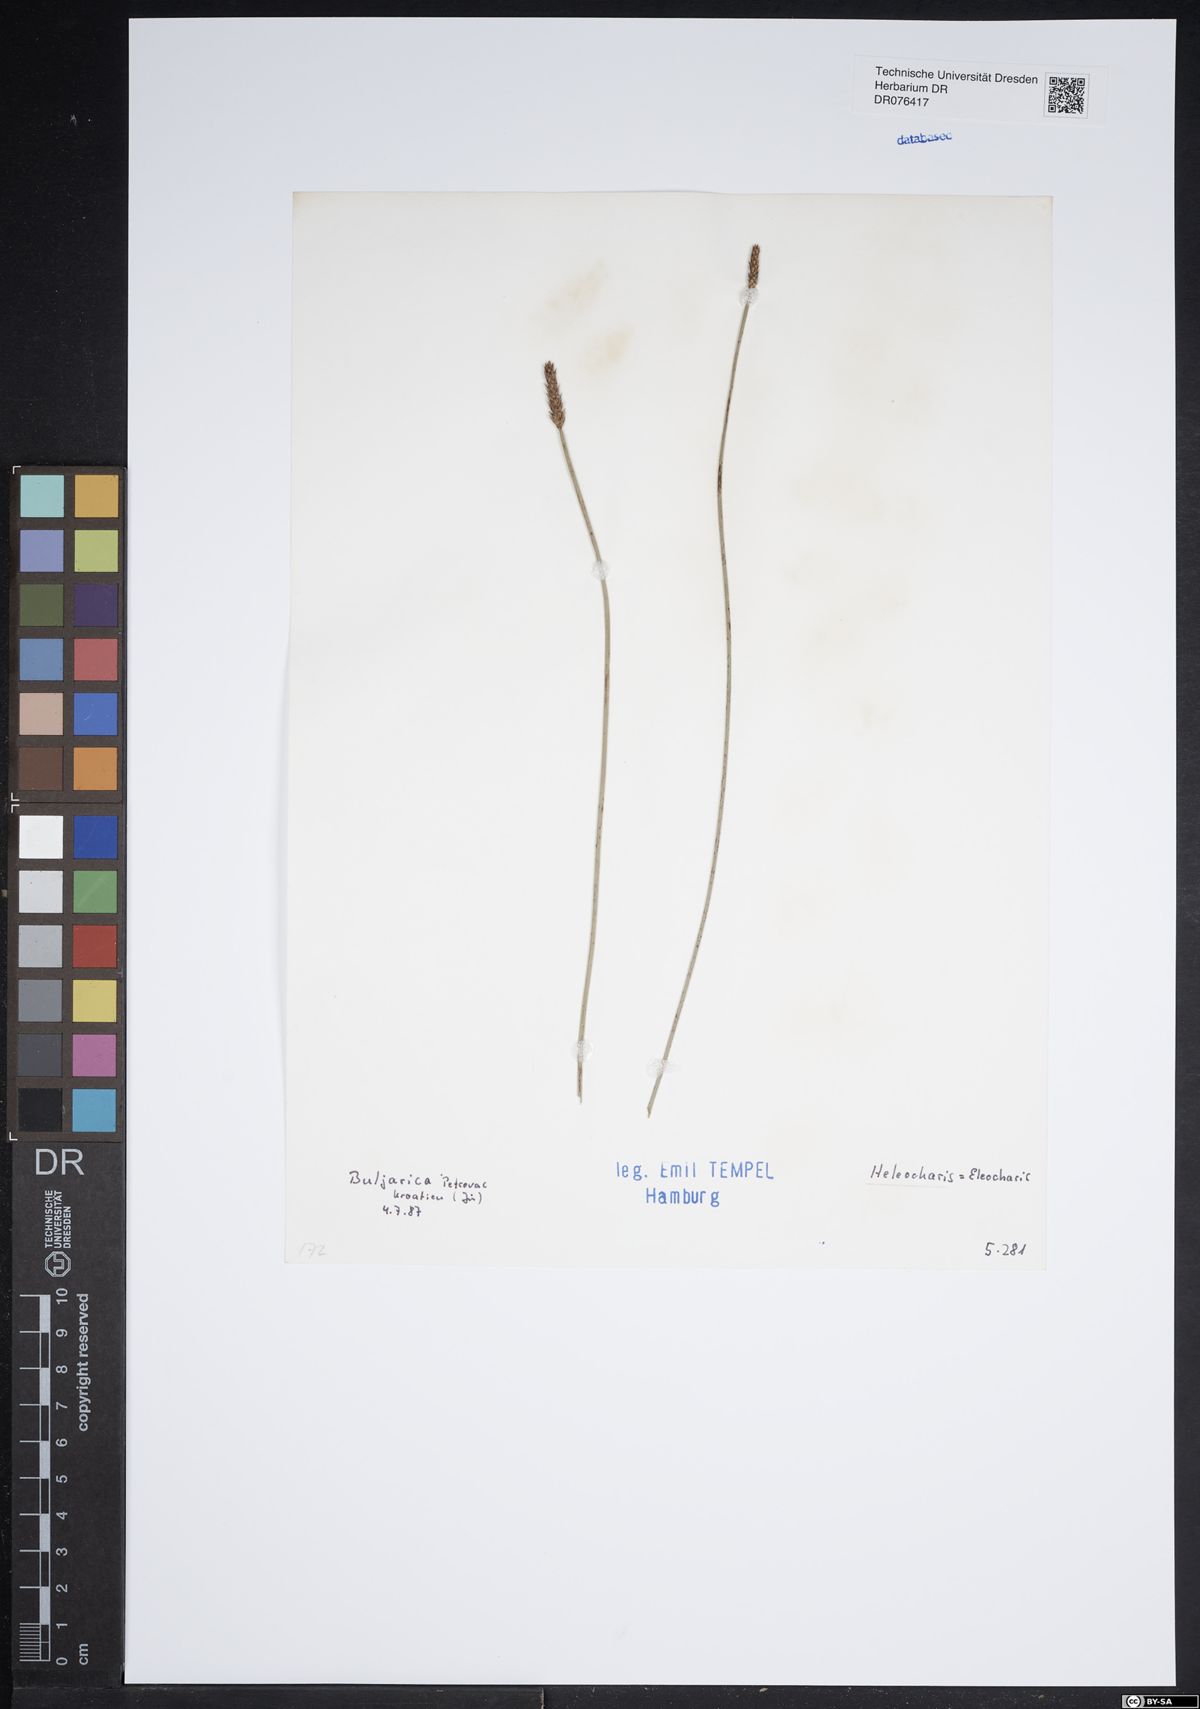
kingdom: Plantae
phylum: Tracheophyta
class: Liliopsida
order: Poales
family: Cyperaceae
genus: Eleocharis
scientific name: Eleocharis
